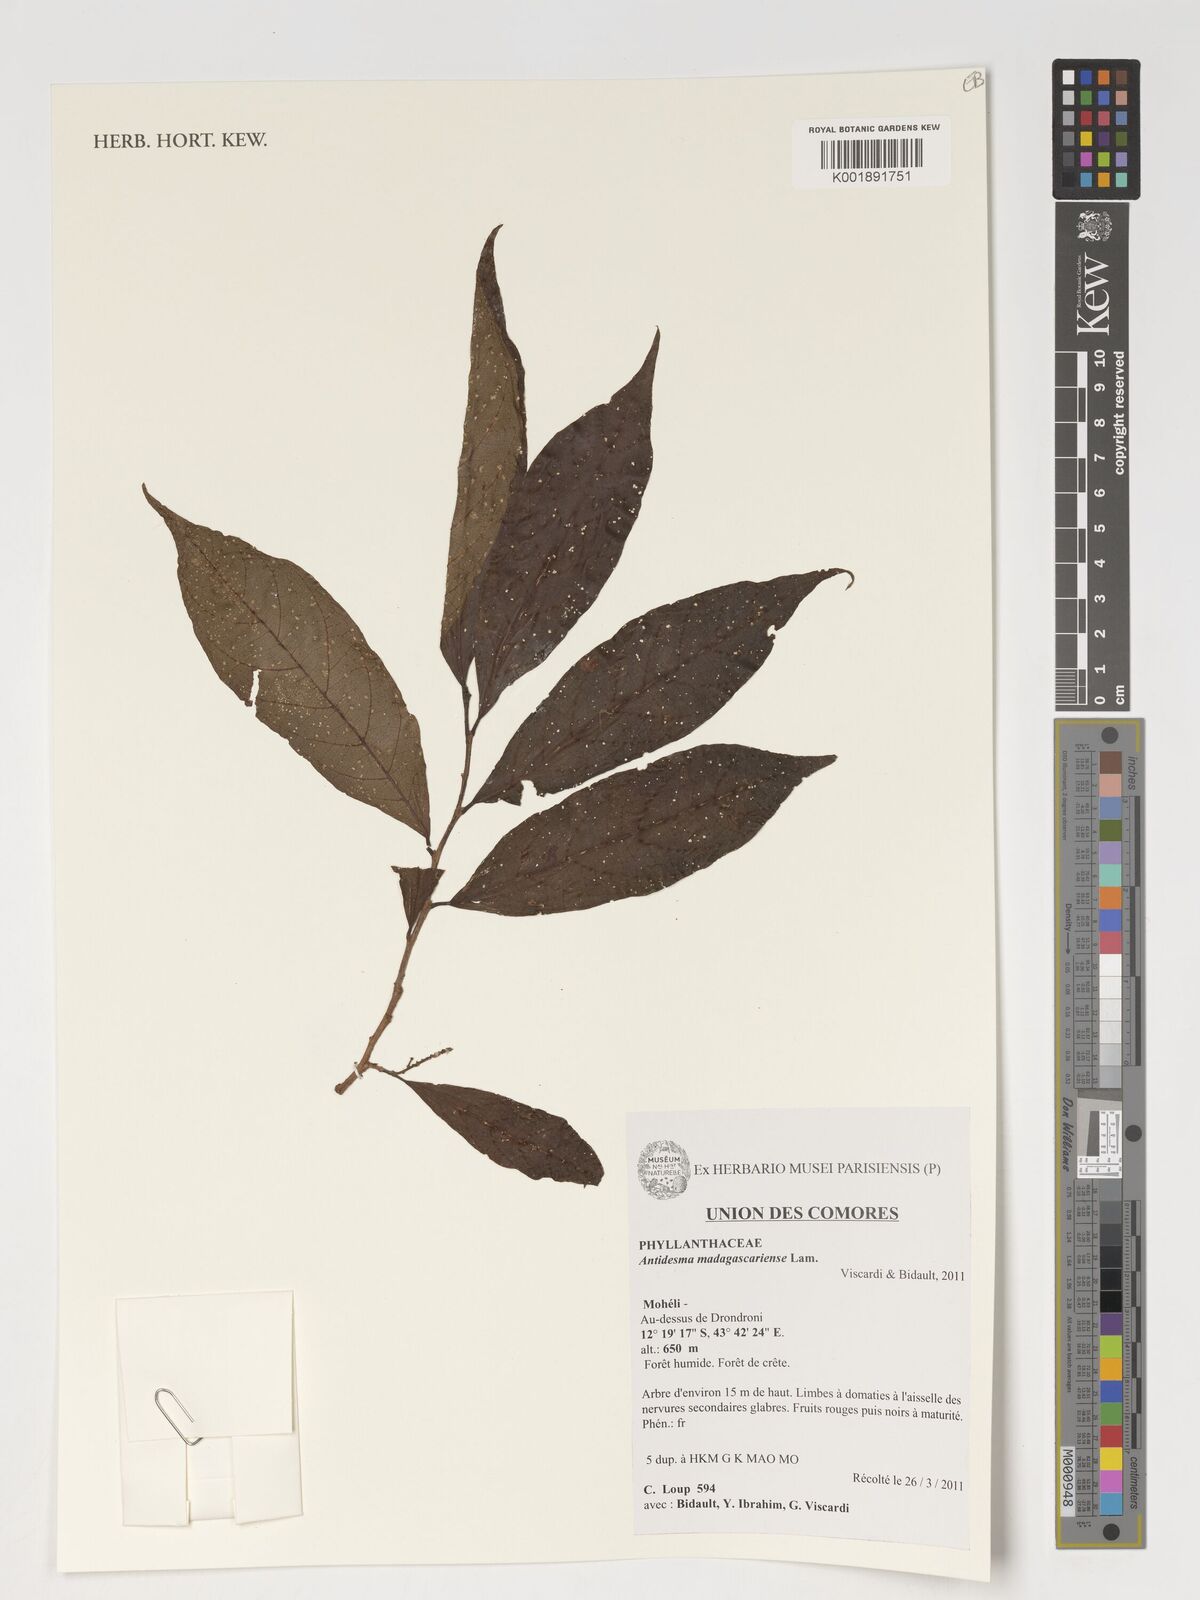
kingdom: Plantae
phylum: Tracheophyta
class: Magnoliopsida
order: Malpighiales
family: Phyllanthaceae
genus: Antidesma
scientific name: Antidesma madagascariense
